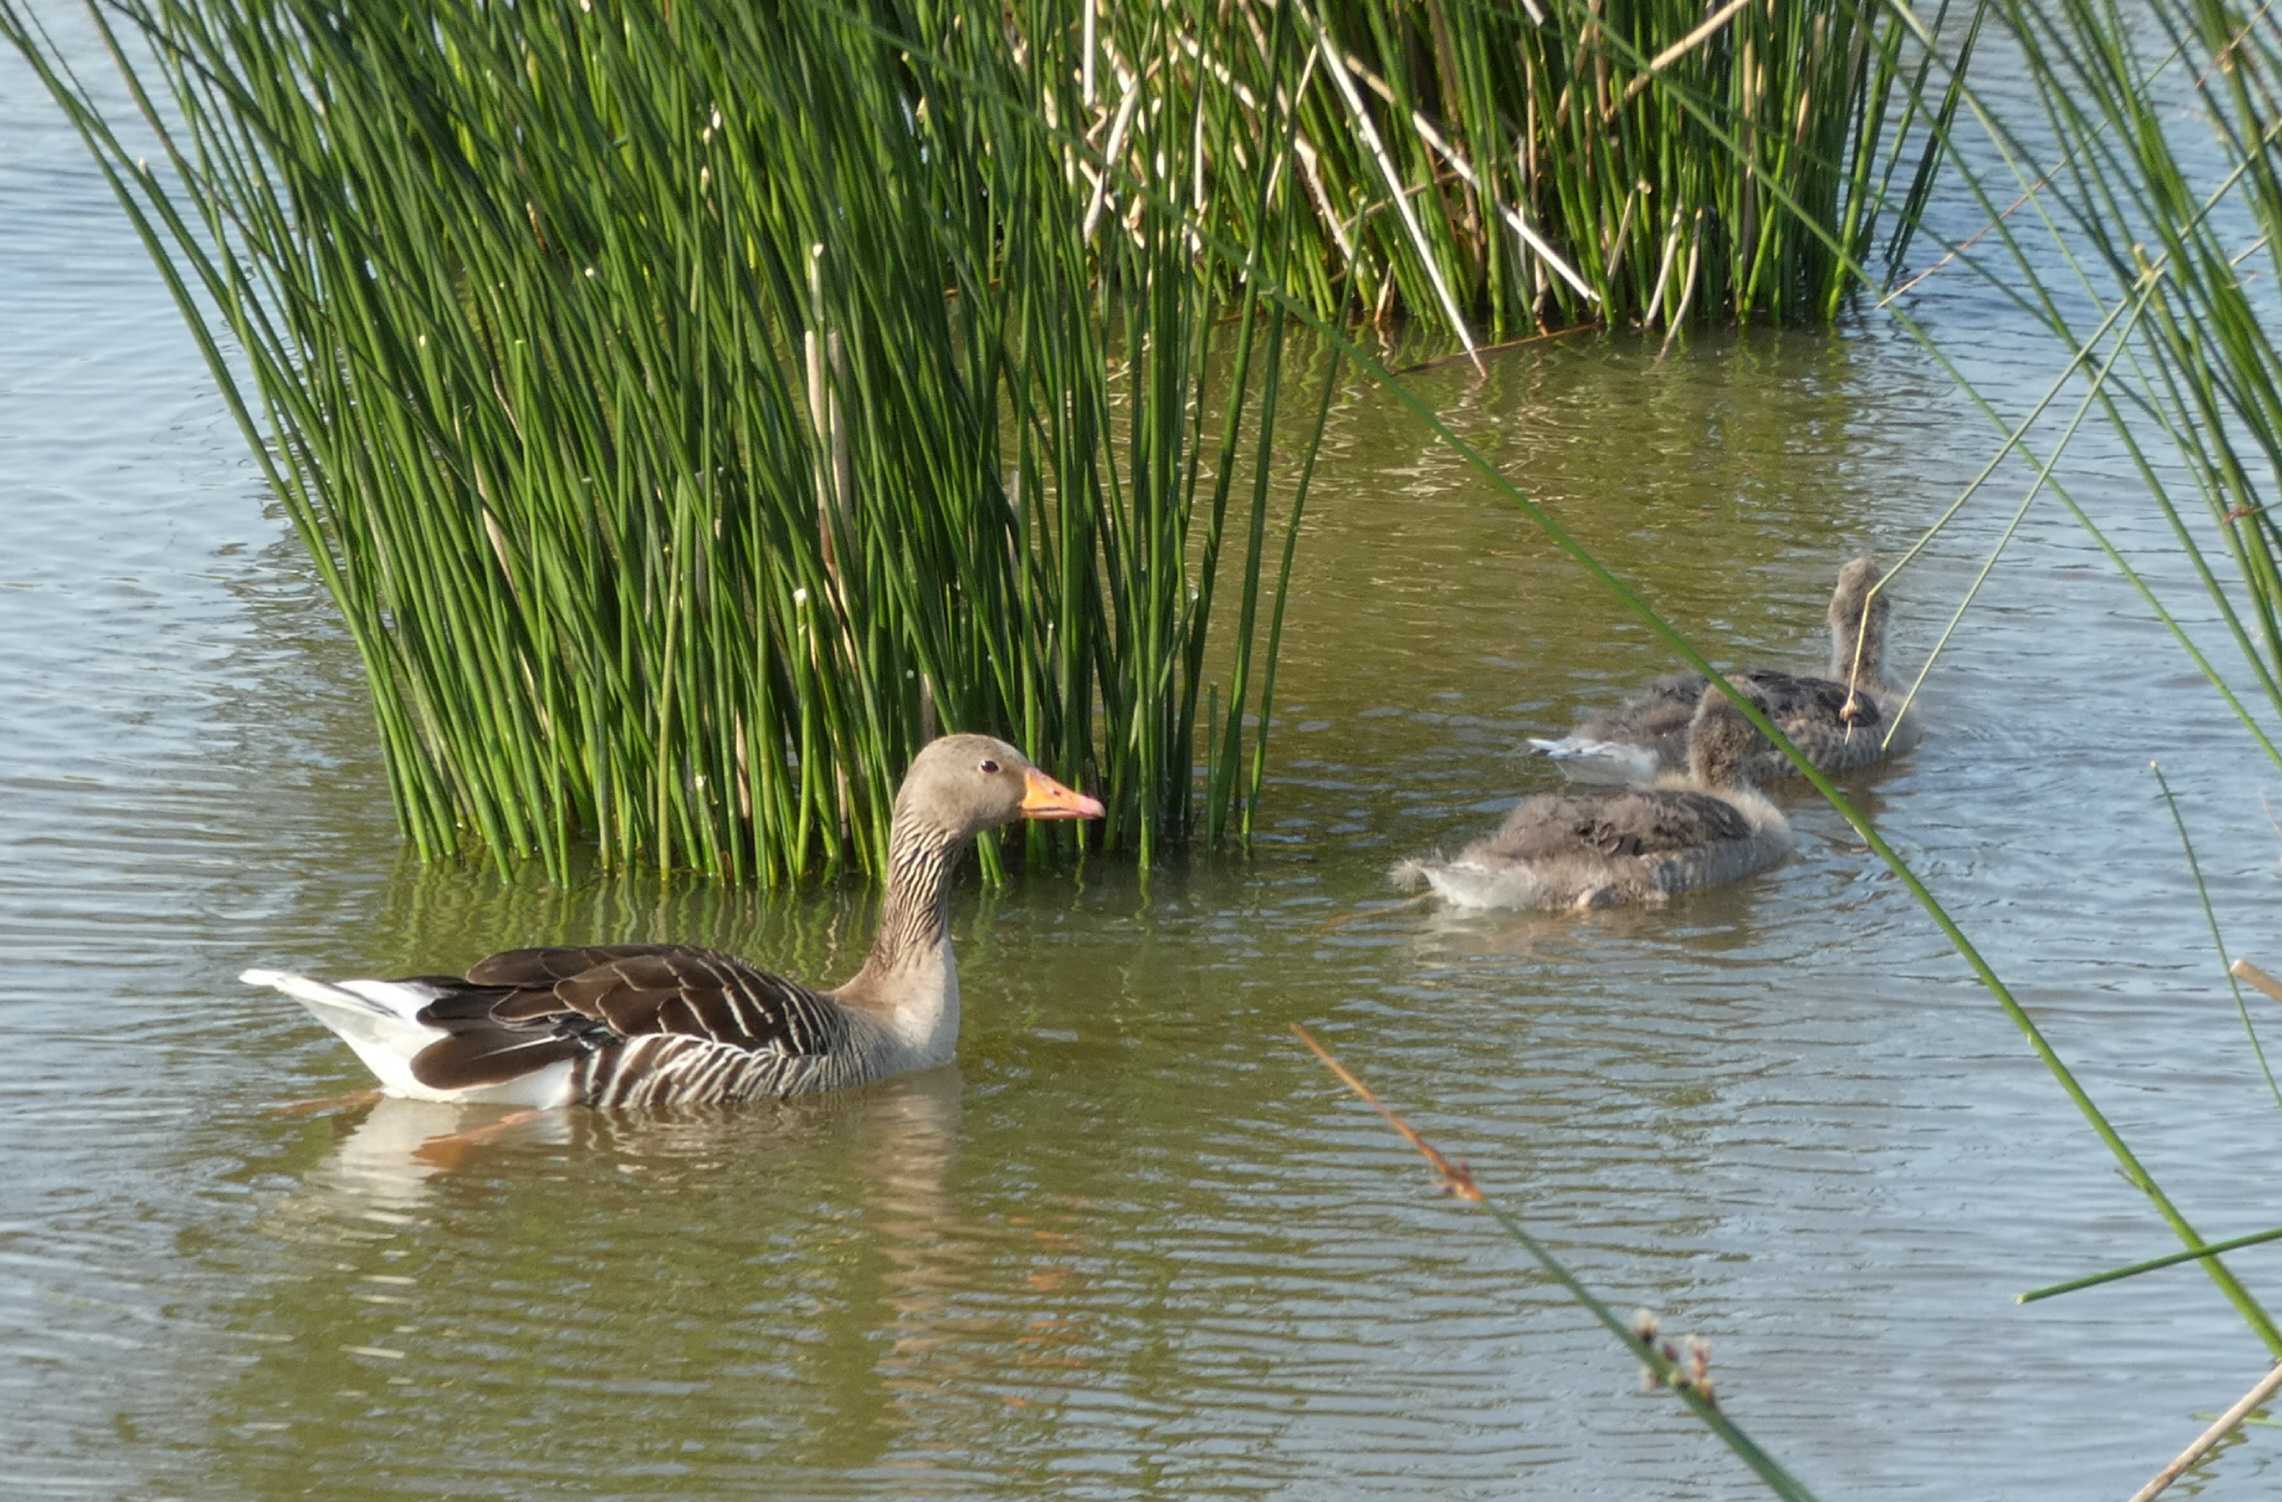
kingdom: Animalia
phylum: Chordata
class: Aves
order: Anseriformes
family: Anatidae
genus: Anser
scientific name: Anser anser
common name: Grågås
